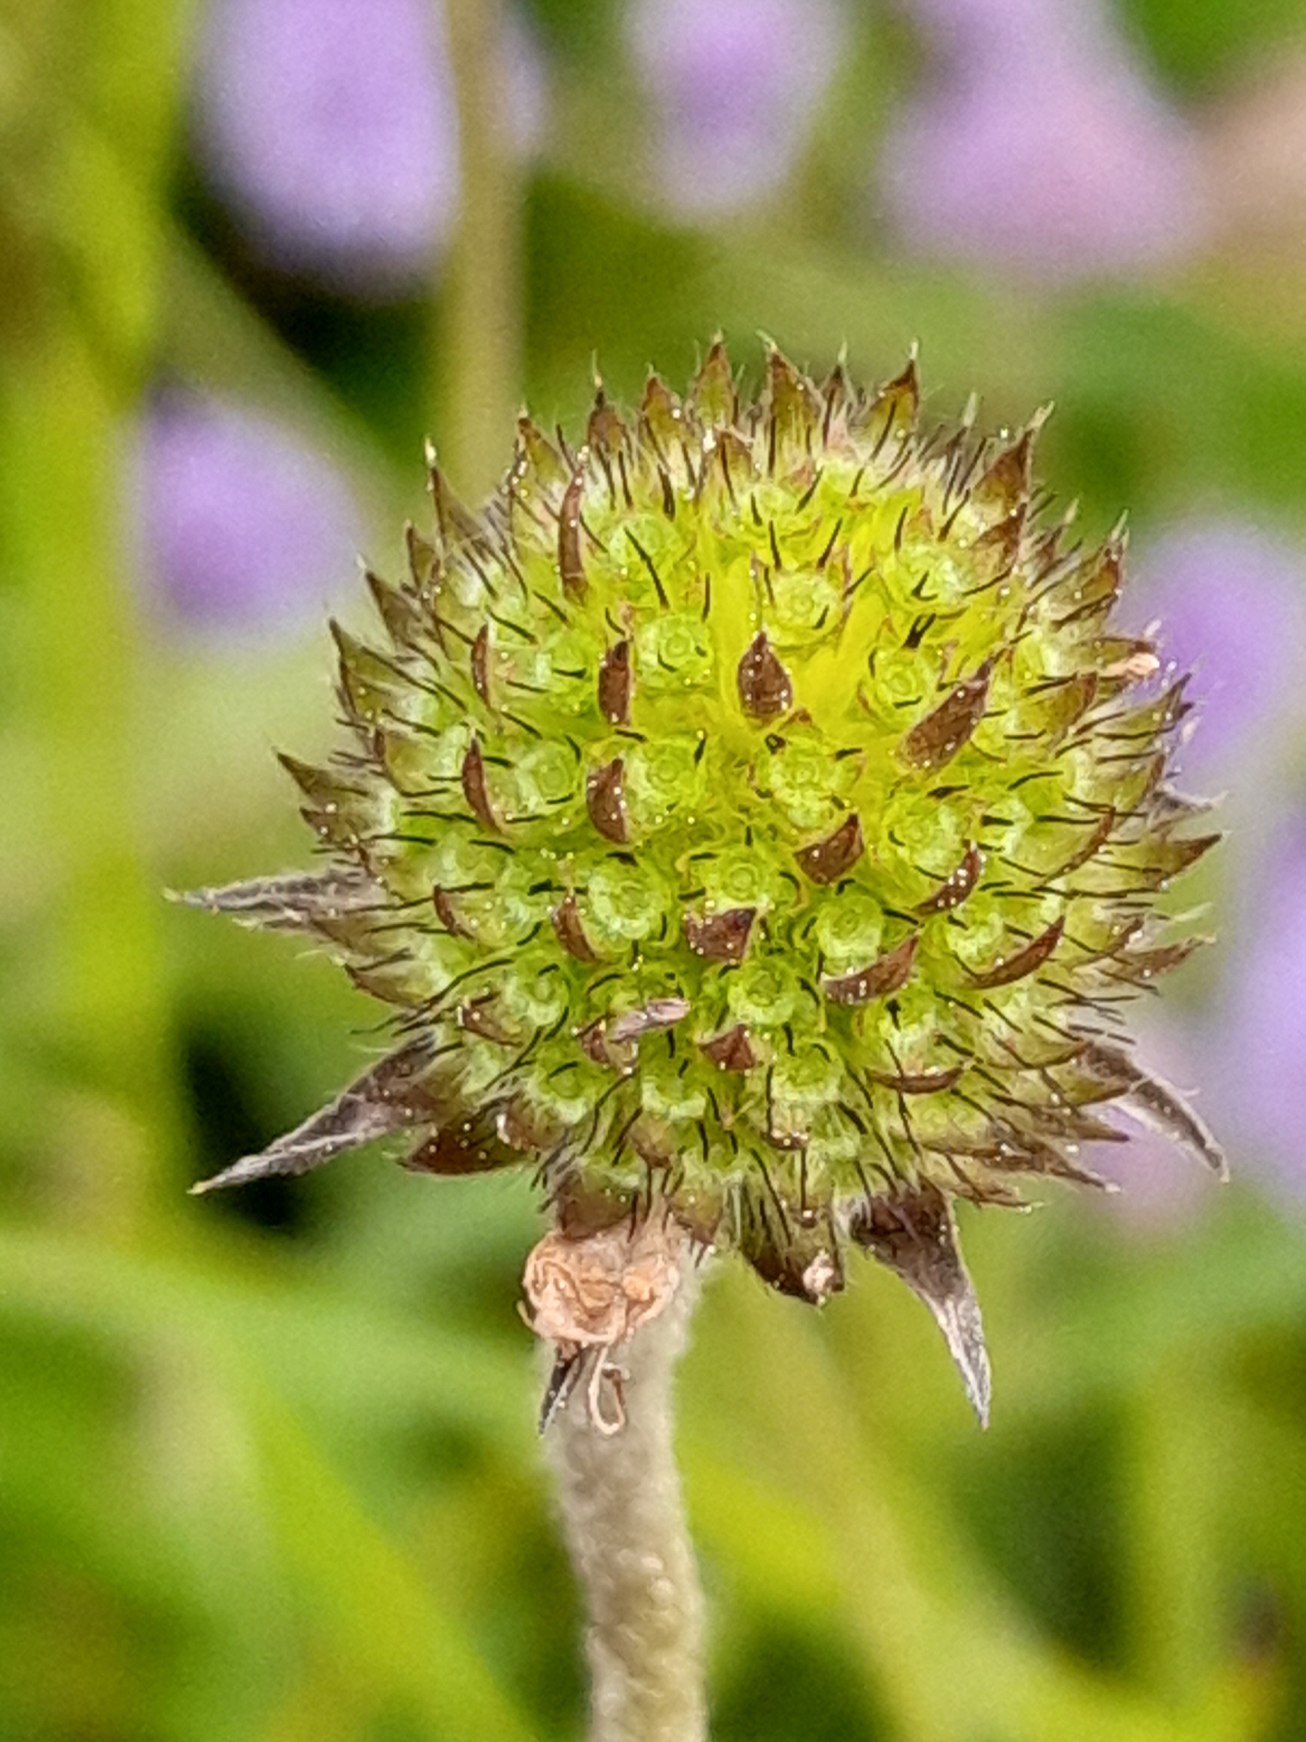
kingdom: Plantae
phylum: Tracheophyta
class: Magnoliopsida
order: Dipsacales
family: Caprifoliaceae
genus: Succisa
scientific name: Succisa pratensis
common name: Djævelsbid
